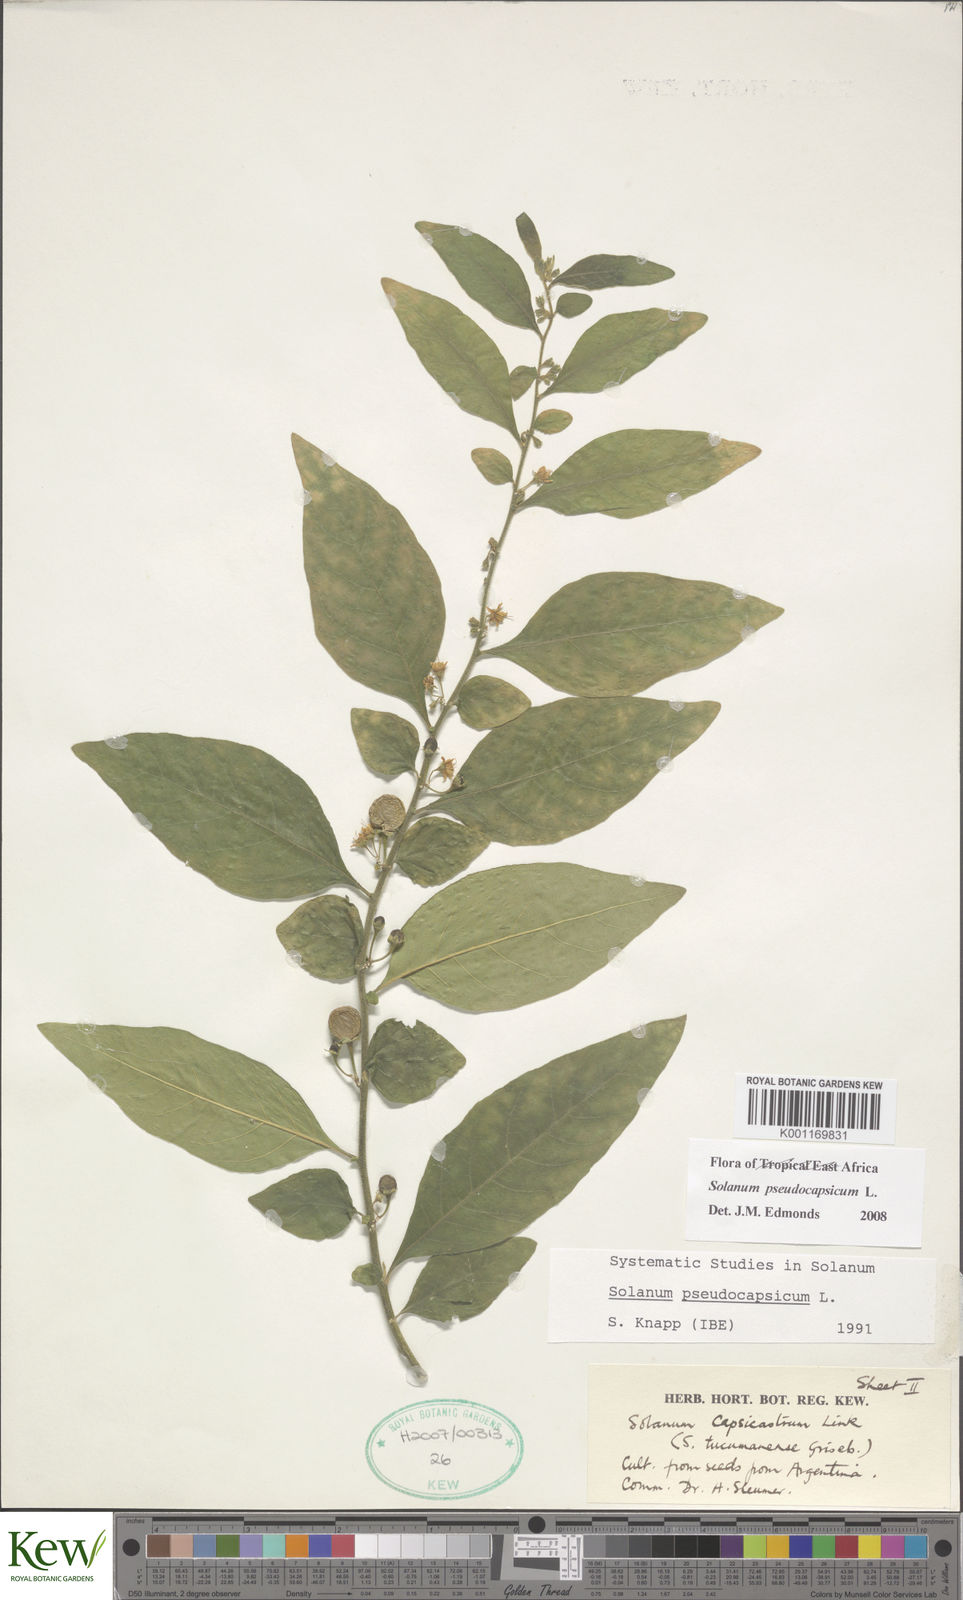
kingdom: Plantae
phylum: Tracheophyta
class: Magnoliopsida
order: Solanales
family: Solanaceae
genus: Solanum
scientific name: Solanum
